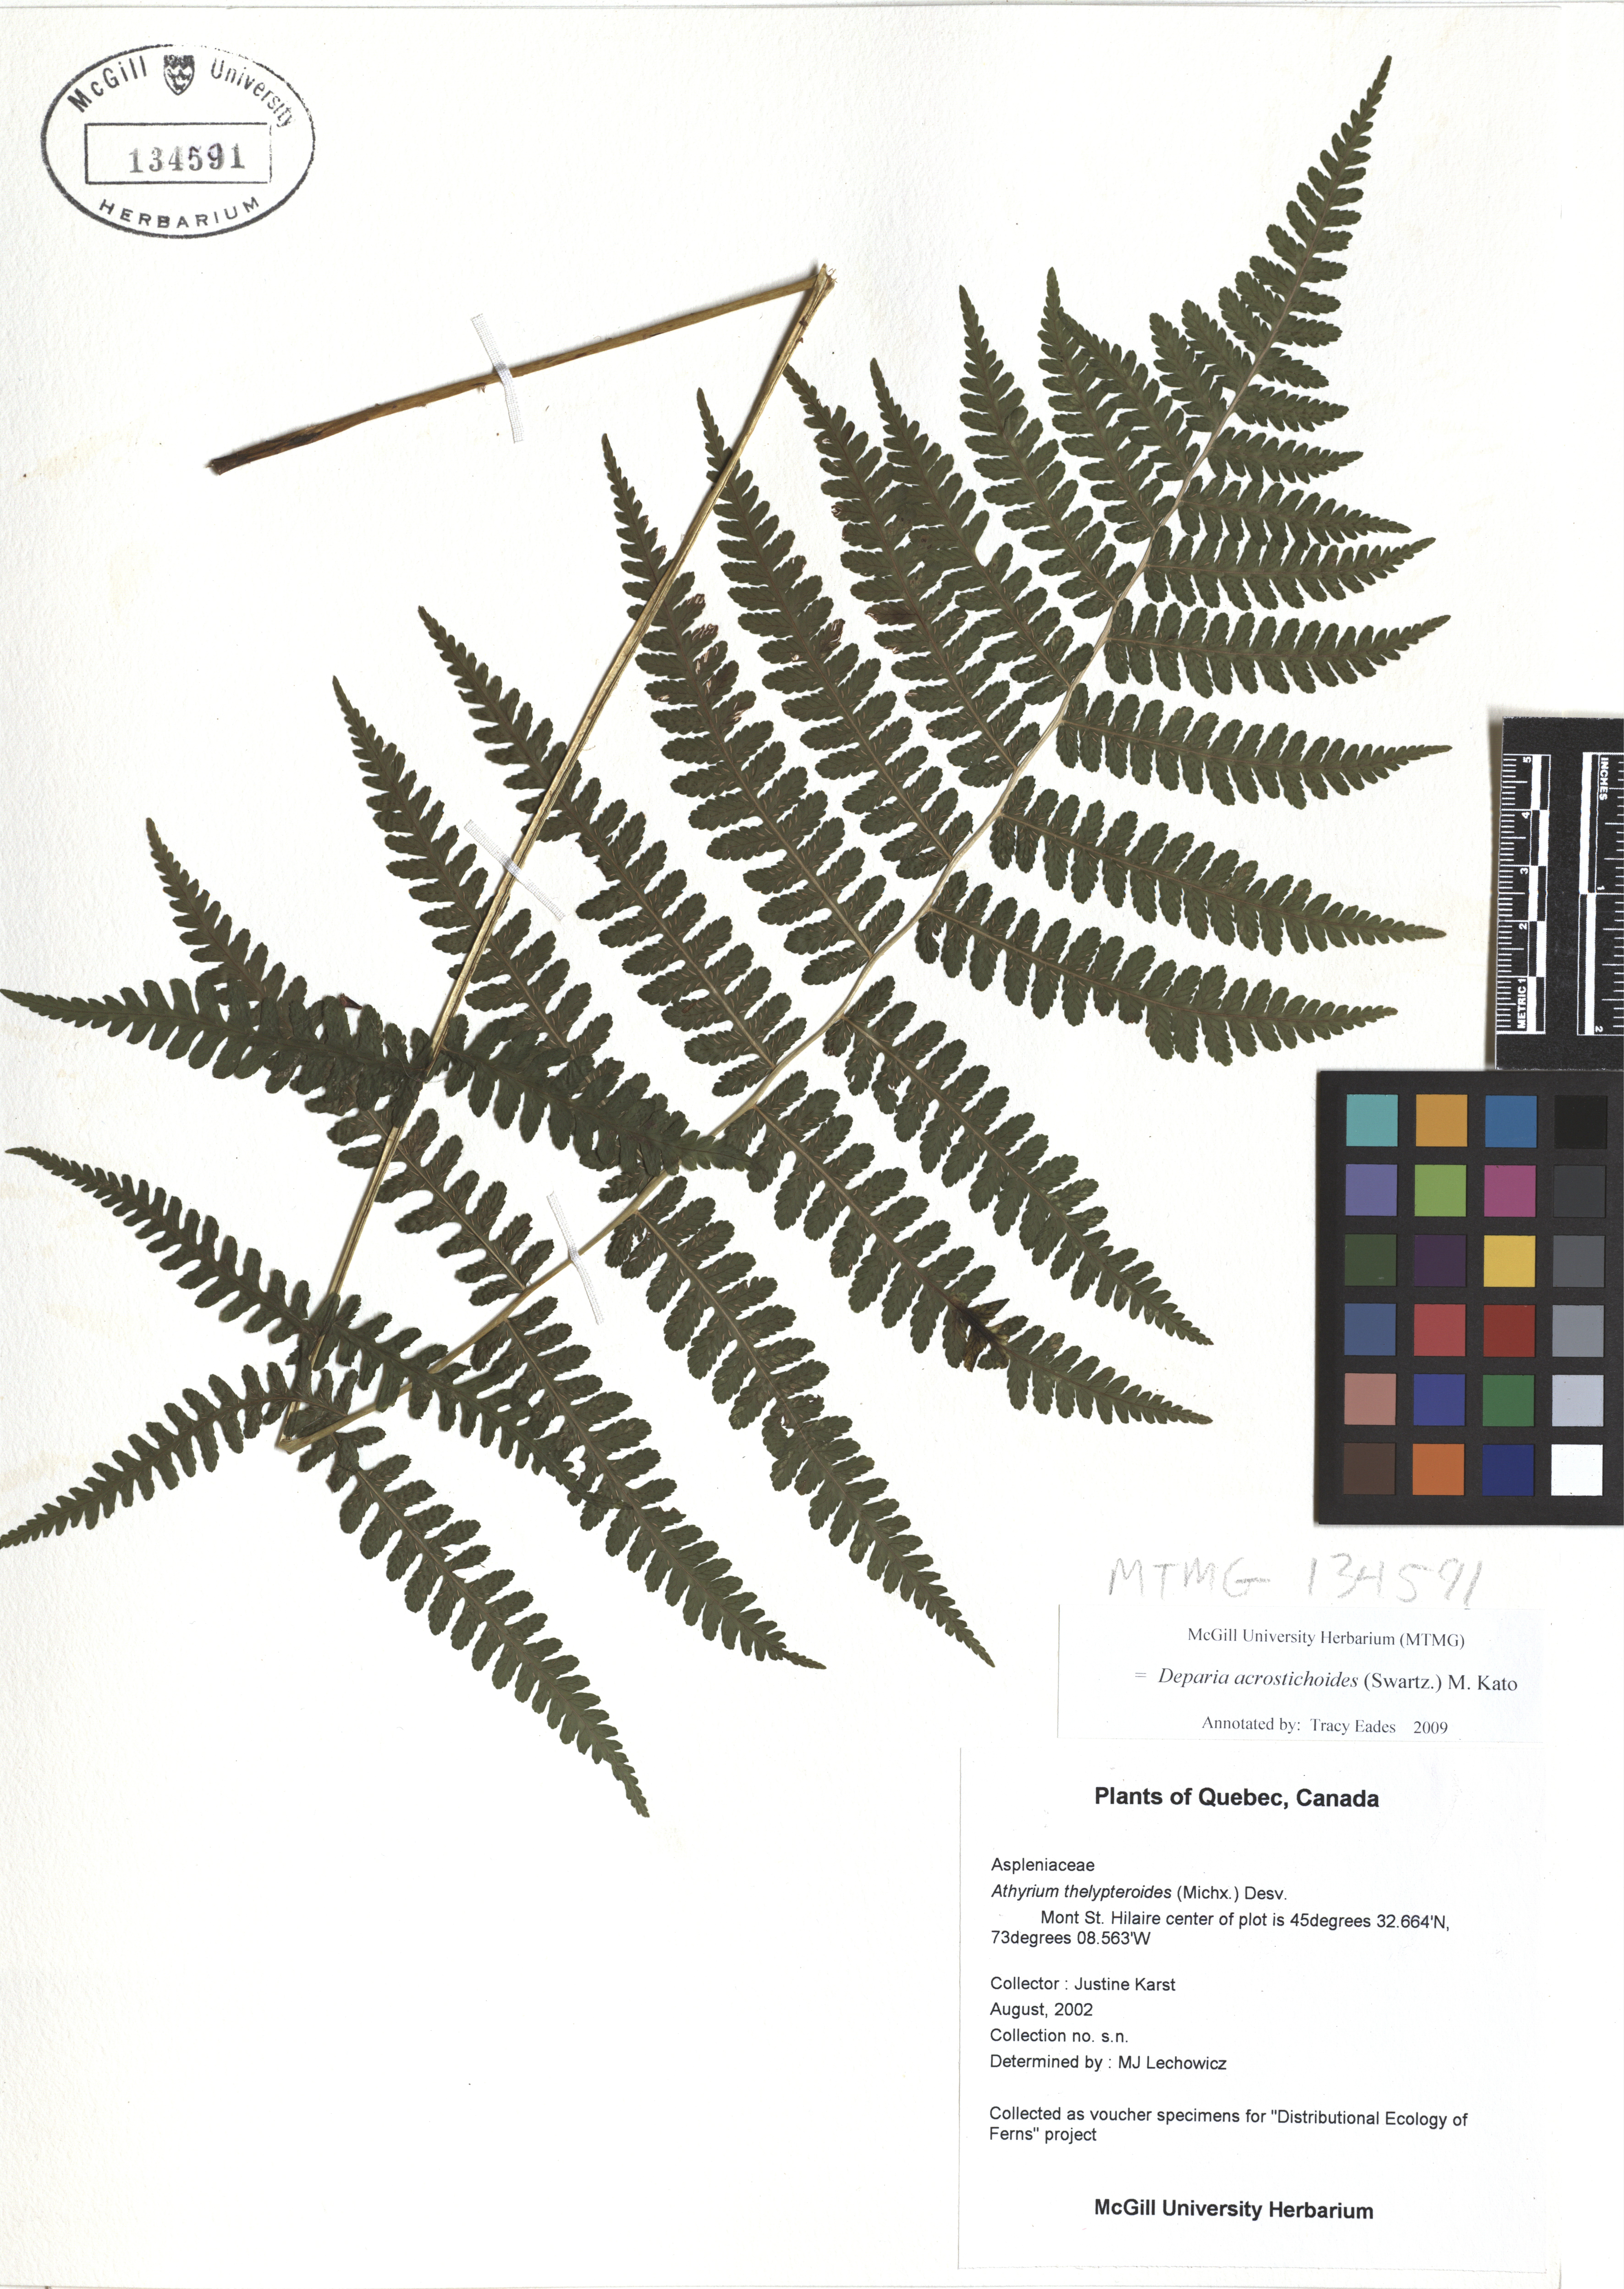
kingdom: Plantae
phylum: Tracheophyta
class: Polypodiopsida
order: Polypodiales
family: Athyriaceae
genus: Deparia
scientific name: Deparia acrostichoides
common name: Silver false spleenwort
